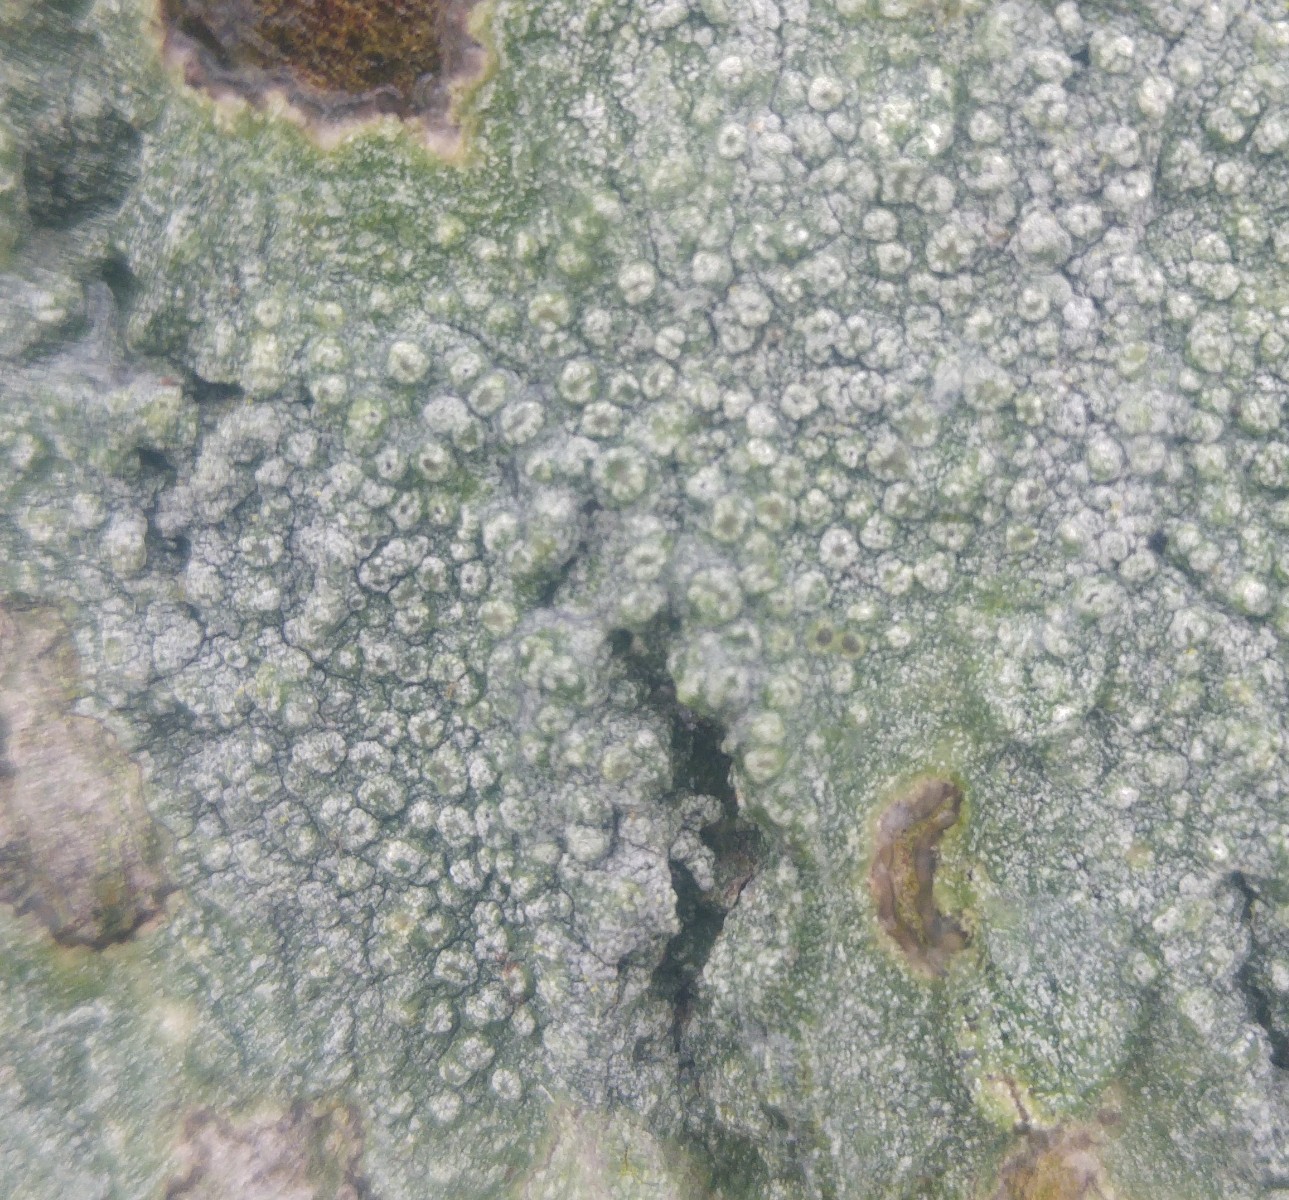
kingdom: Fungi
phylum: Ascomycota
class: Lecanoromycetes
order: Pertusariales
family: Pertusariaceae
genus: Pertusaria
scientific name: Pertusaria hymenea
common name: åben prikvortelav
